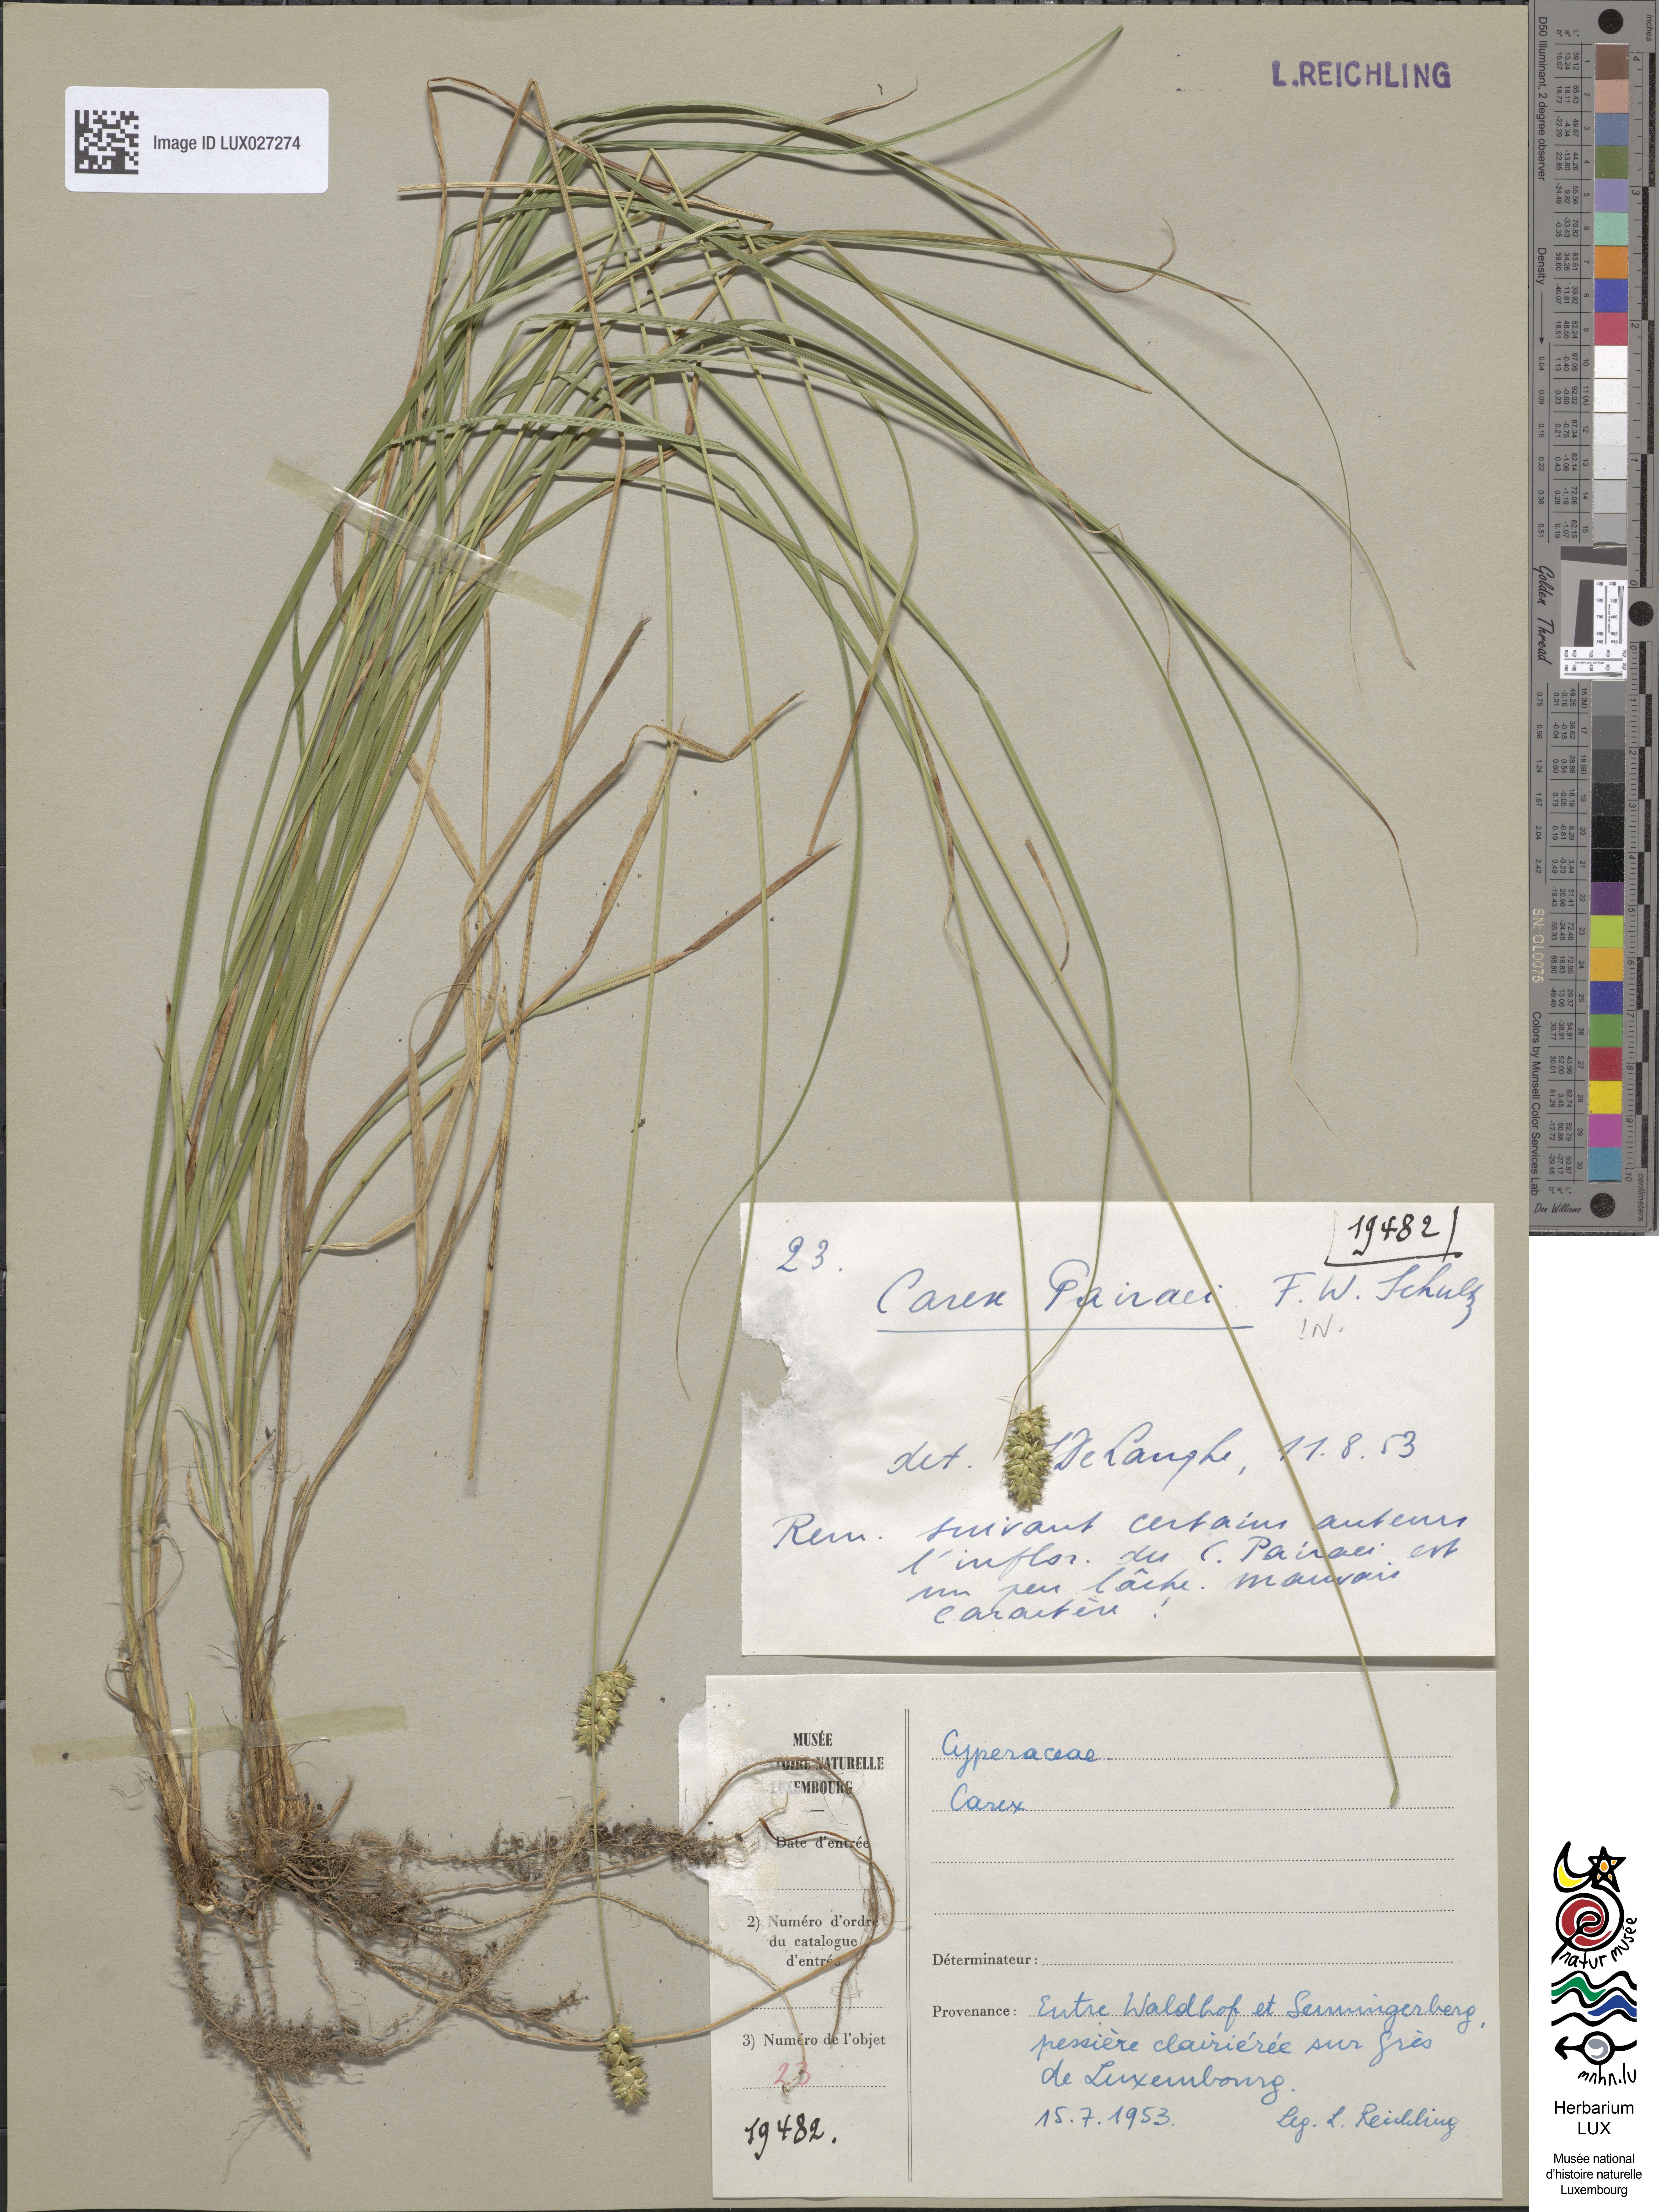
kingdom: Plantae
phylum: Tracheophyta
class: Liliopsida
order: Poales
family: Cyperaceae
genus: Carex
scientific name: Carex pairae
